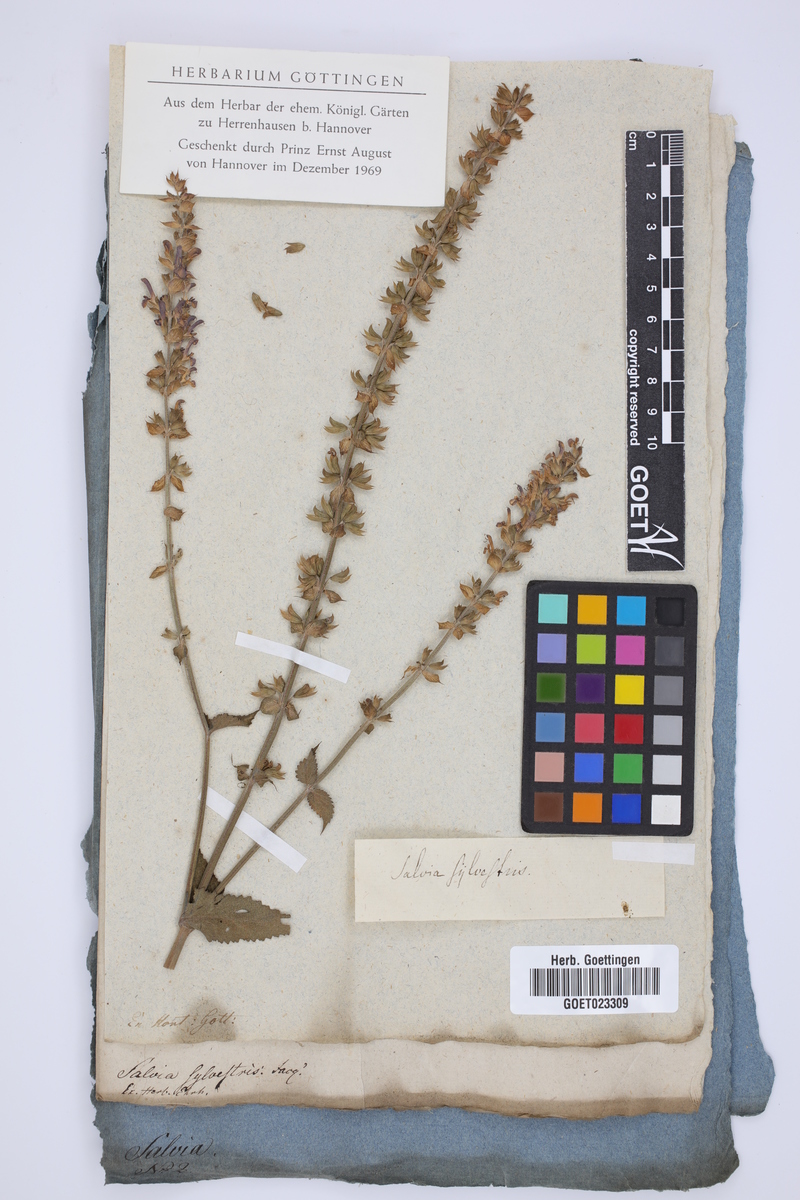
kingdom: Plantae
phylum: Tracheophyta
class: Magnoliopsida
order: Lamiales
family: Lamiaceae
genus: Salvia
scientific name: Salvia sylvestris
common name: Woodland sage
